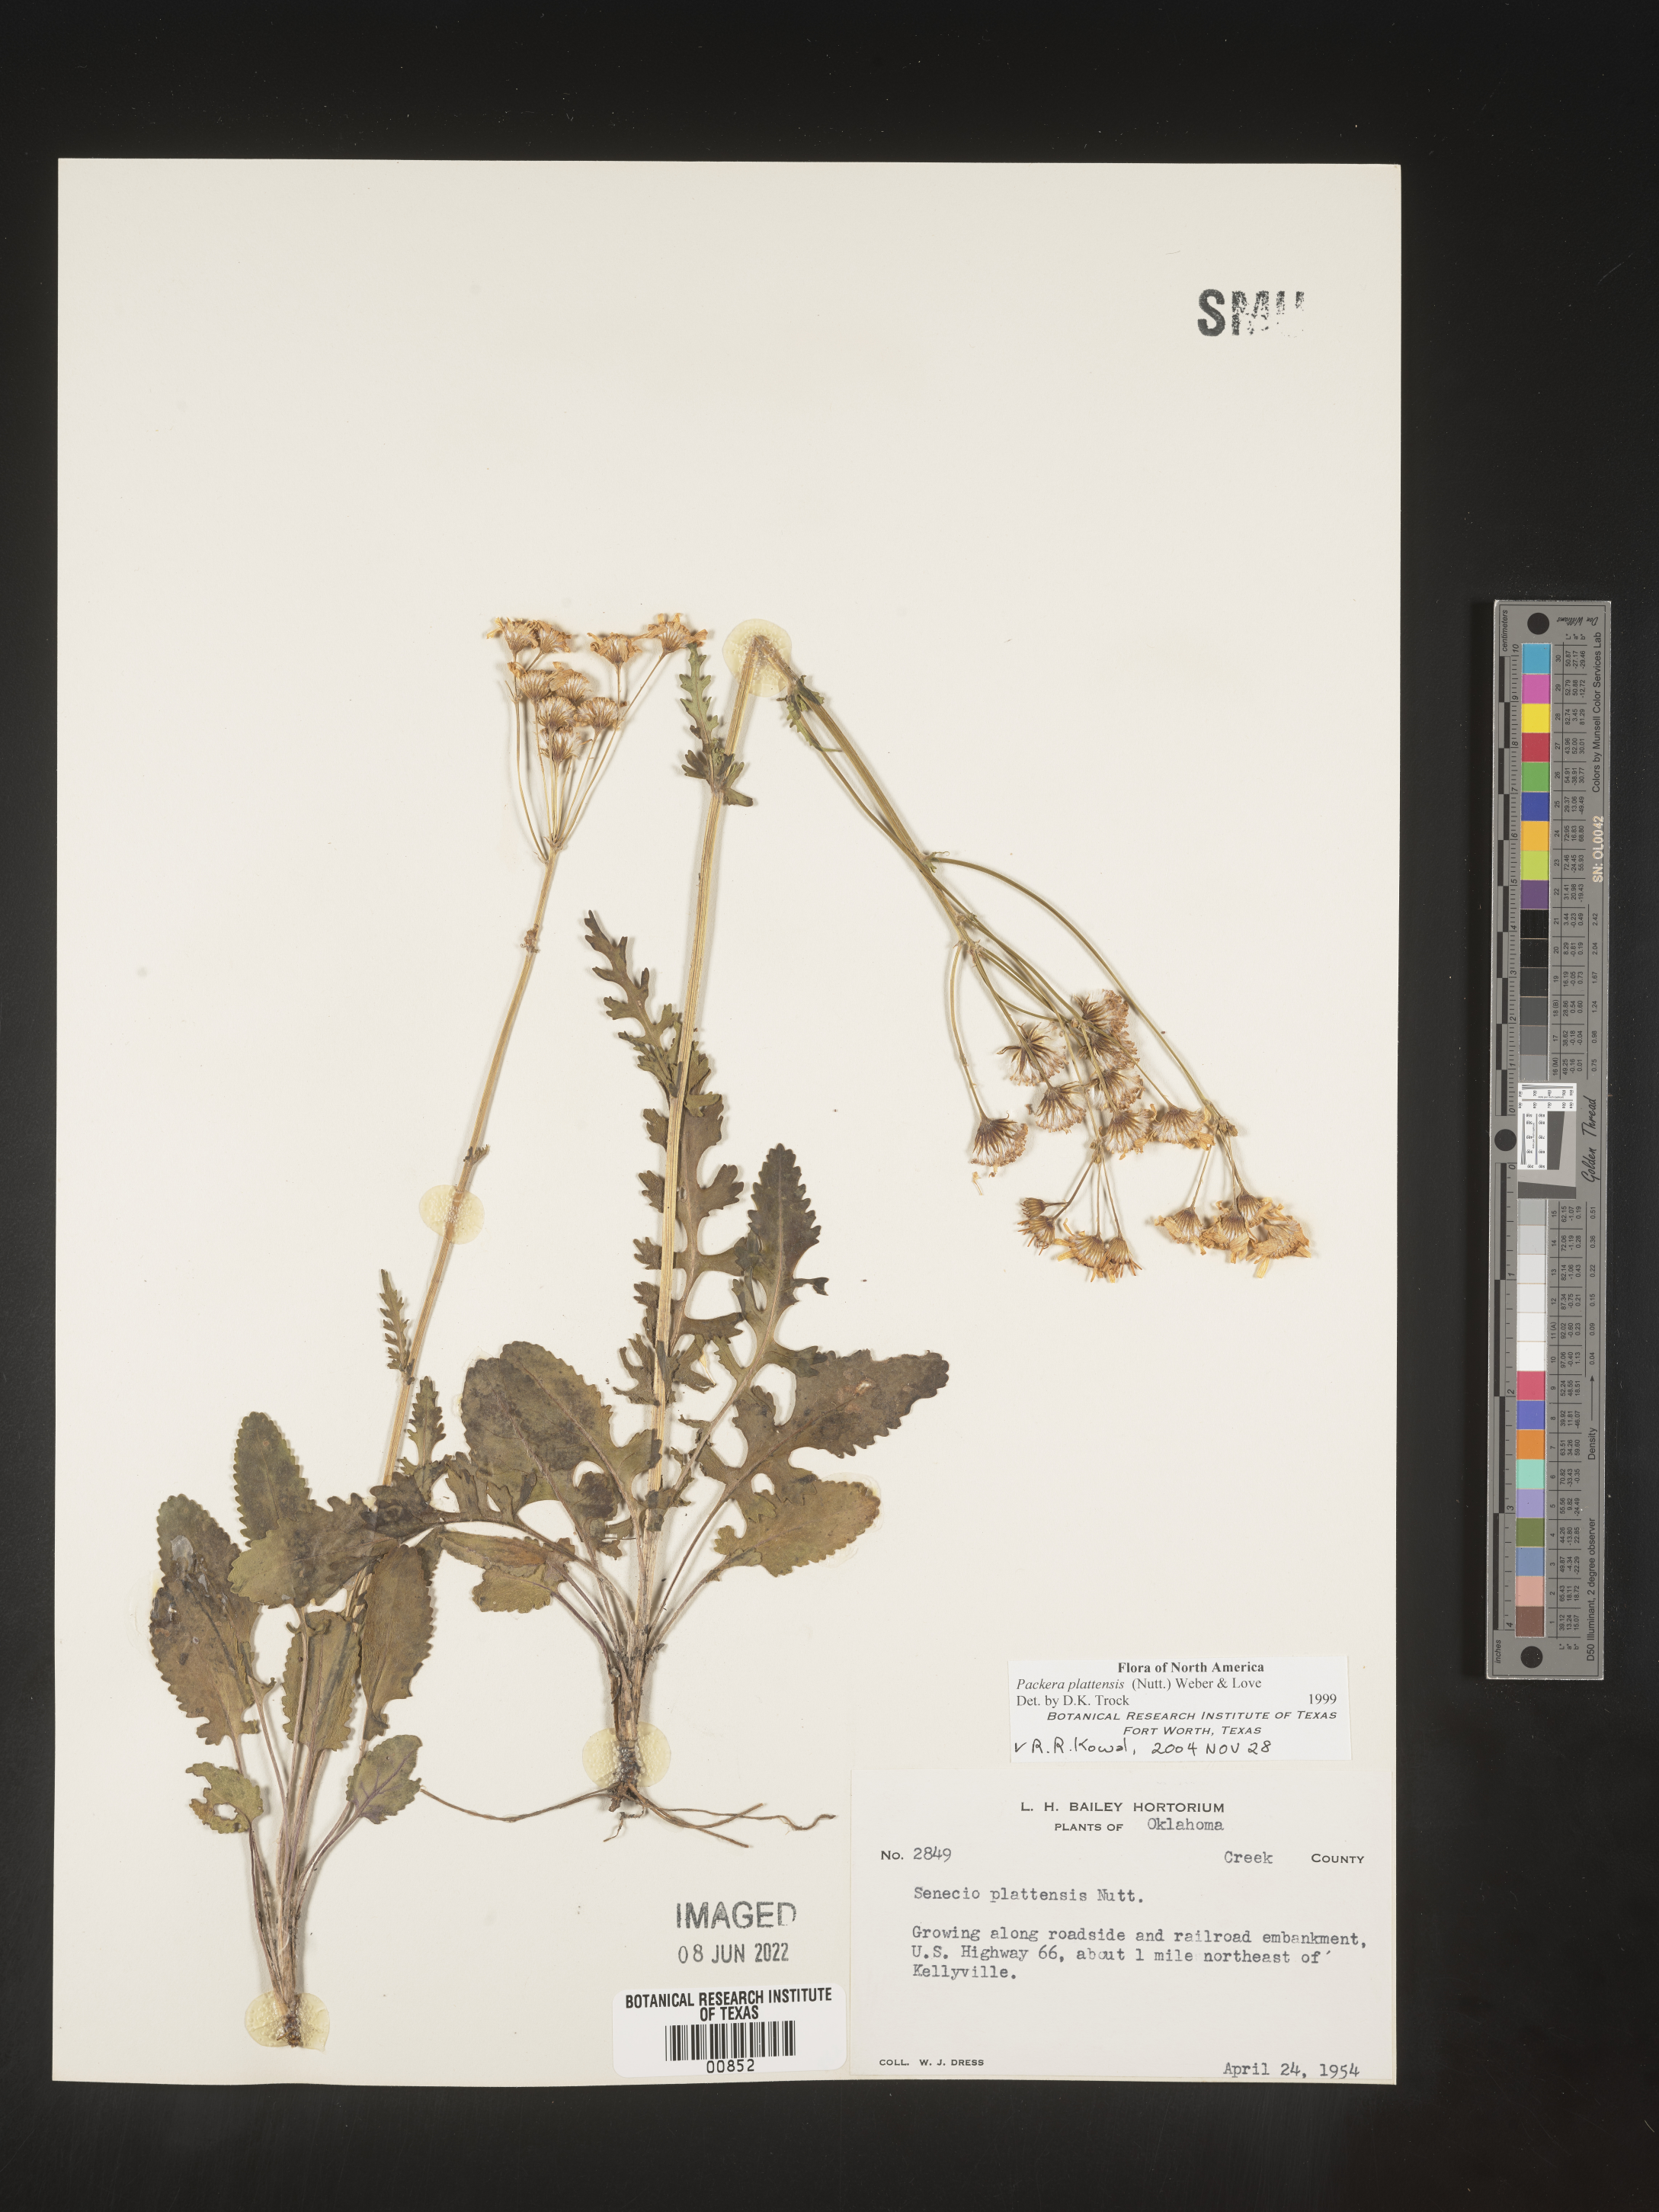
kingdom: Plantae
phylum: Tracheophyta
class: Magnoliopsida
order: Asterales
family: Asteraceae
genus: Packera
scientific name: Packera plattensis
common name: Prairie groundsel
